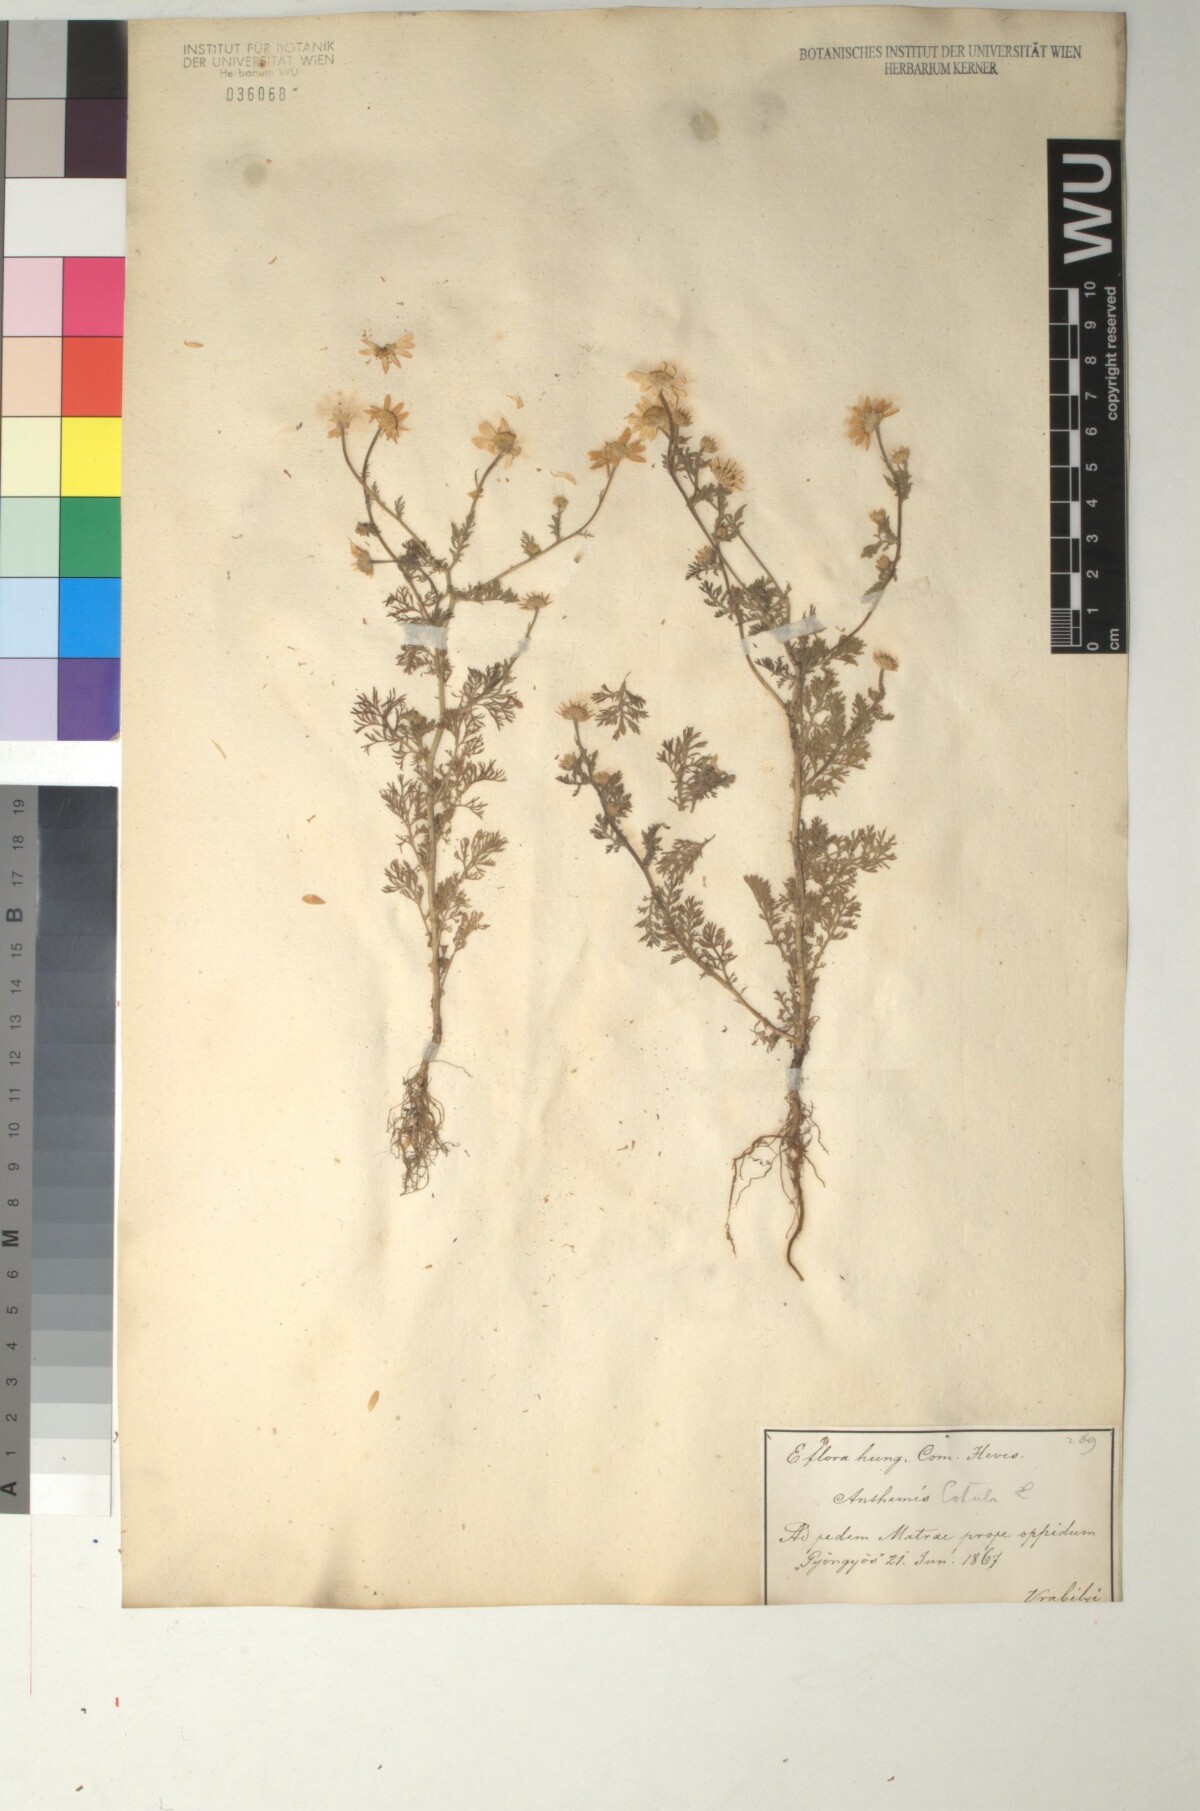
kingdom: Plantae
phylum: Tracheophyta
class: Magnoliopsida
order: Asterales
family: Asteraceae
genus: Anthemis
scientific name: Anthemis cotula
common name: Stinking chamomile
